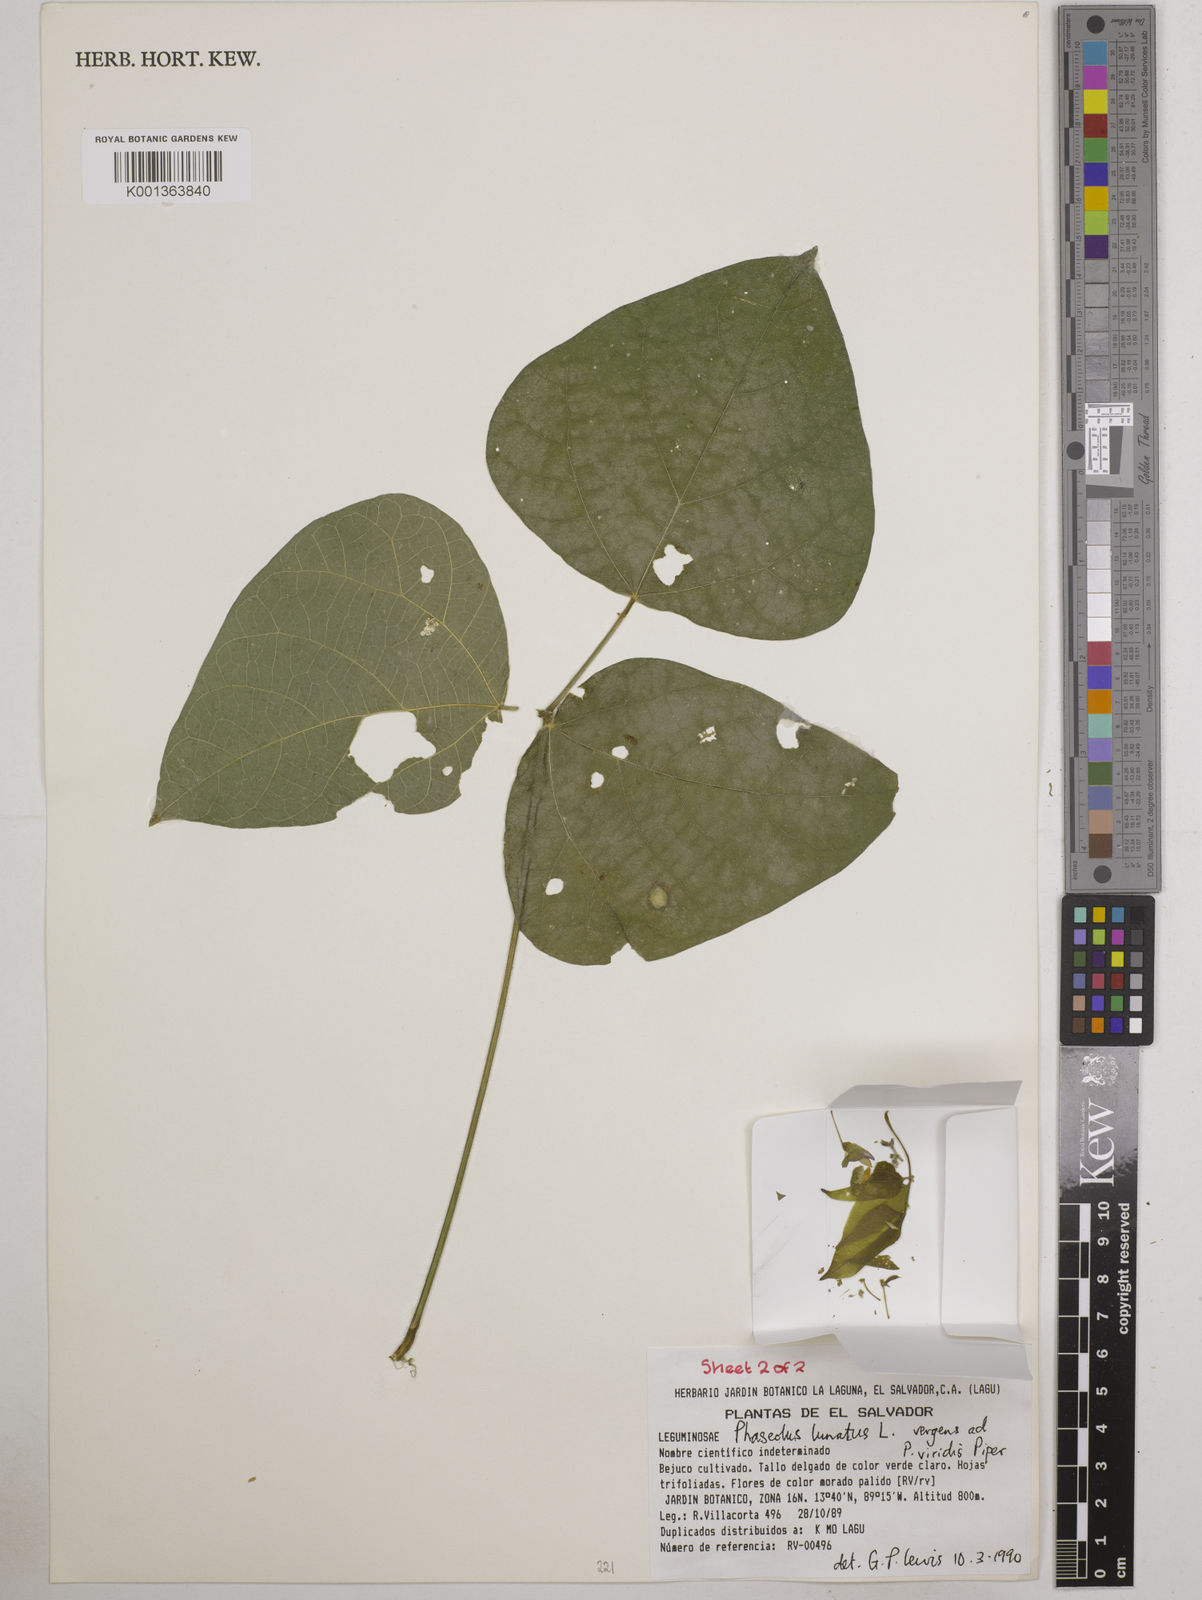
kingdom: Plantae
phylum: Tracheophyta
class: Magnoliopsida
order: Fabales
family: Fabaceae
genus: Phaseolus
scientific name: Phaseolus lunatus
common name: Sieva bean
